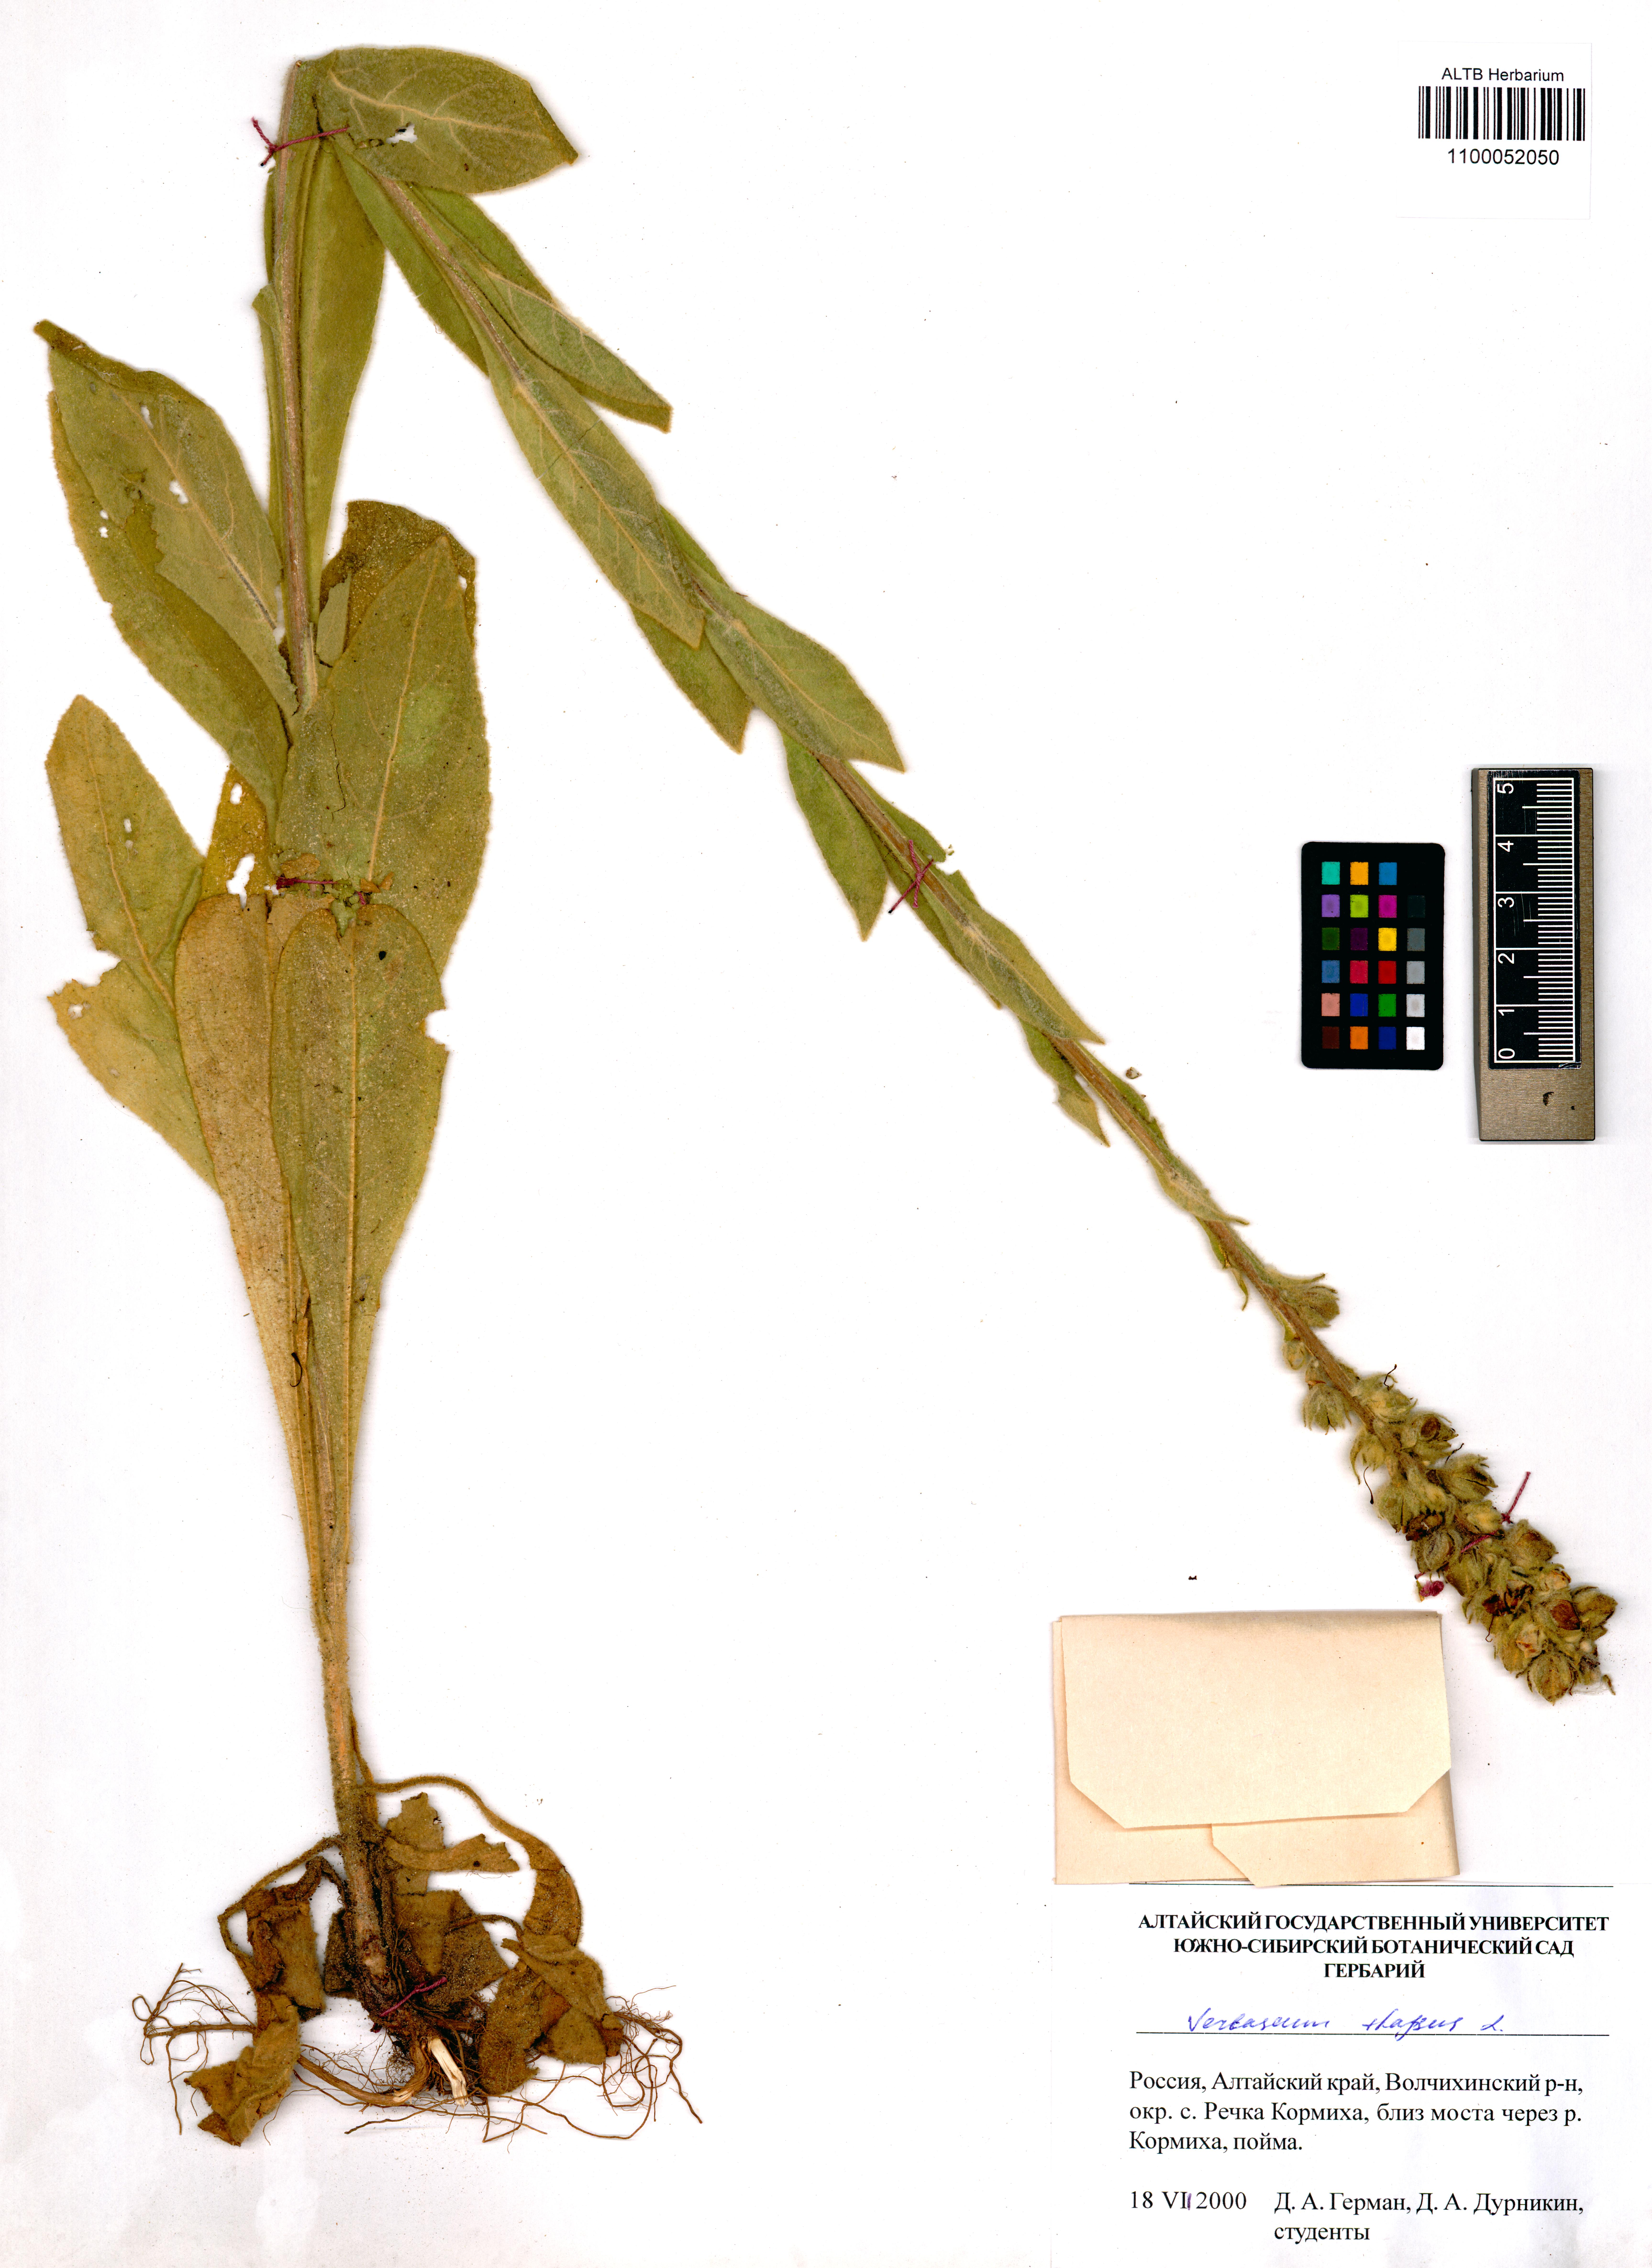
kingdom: Plantae
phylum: Tracheophyta
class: Magnoliopsida
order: Lamiales
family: Scrophulariaceae
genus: Verbascum
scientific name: Verbascum thapsus
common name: Common mullein
